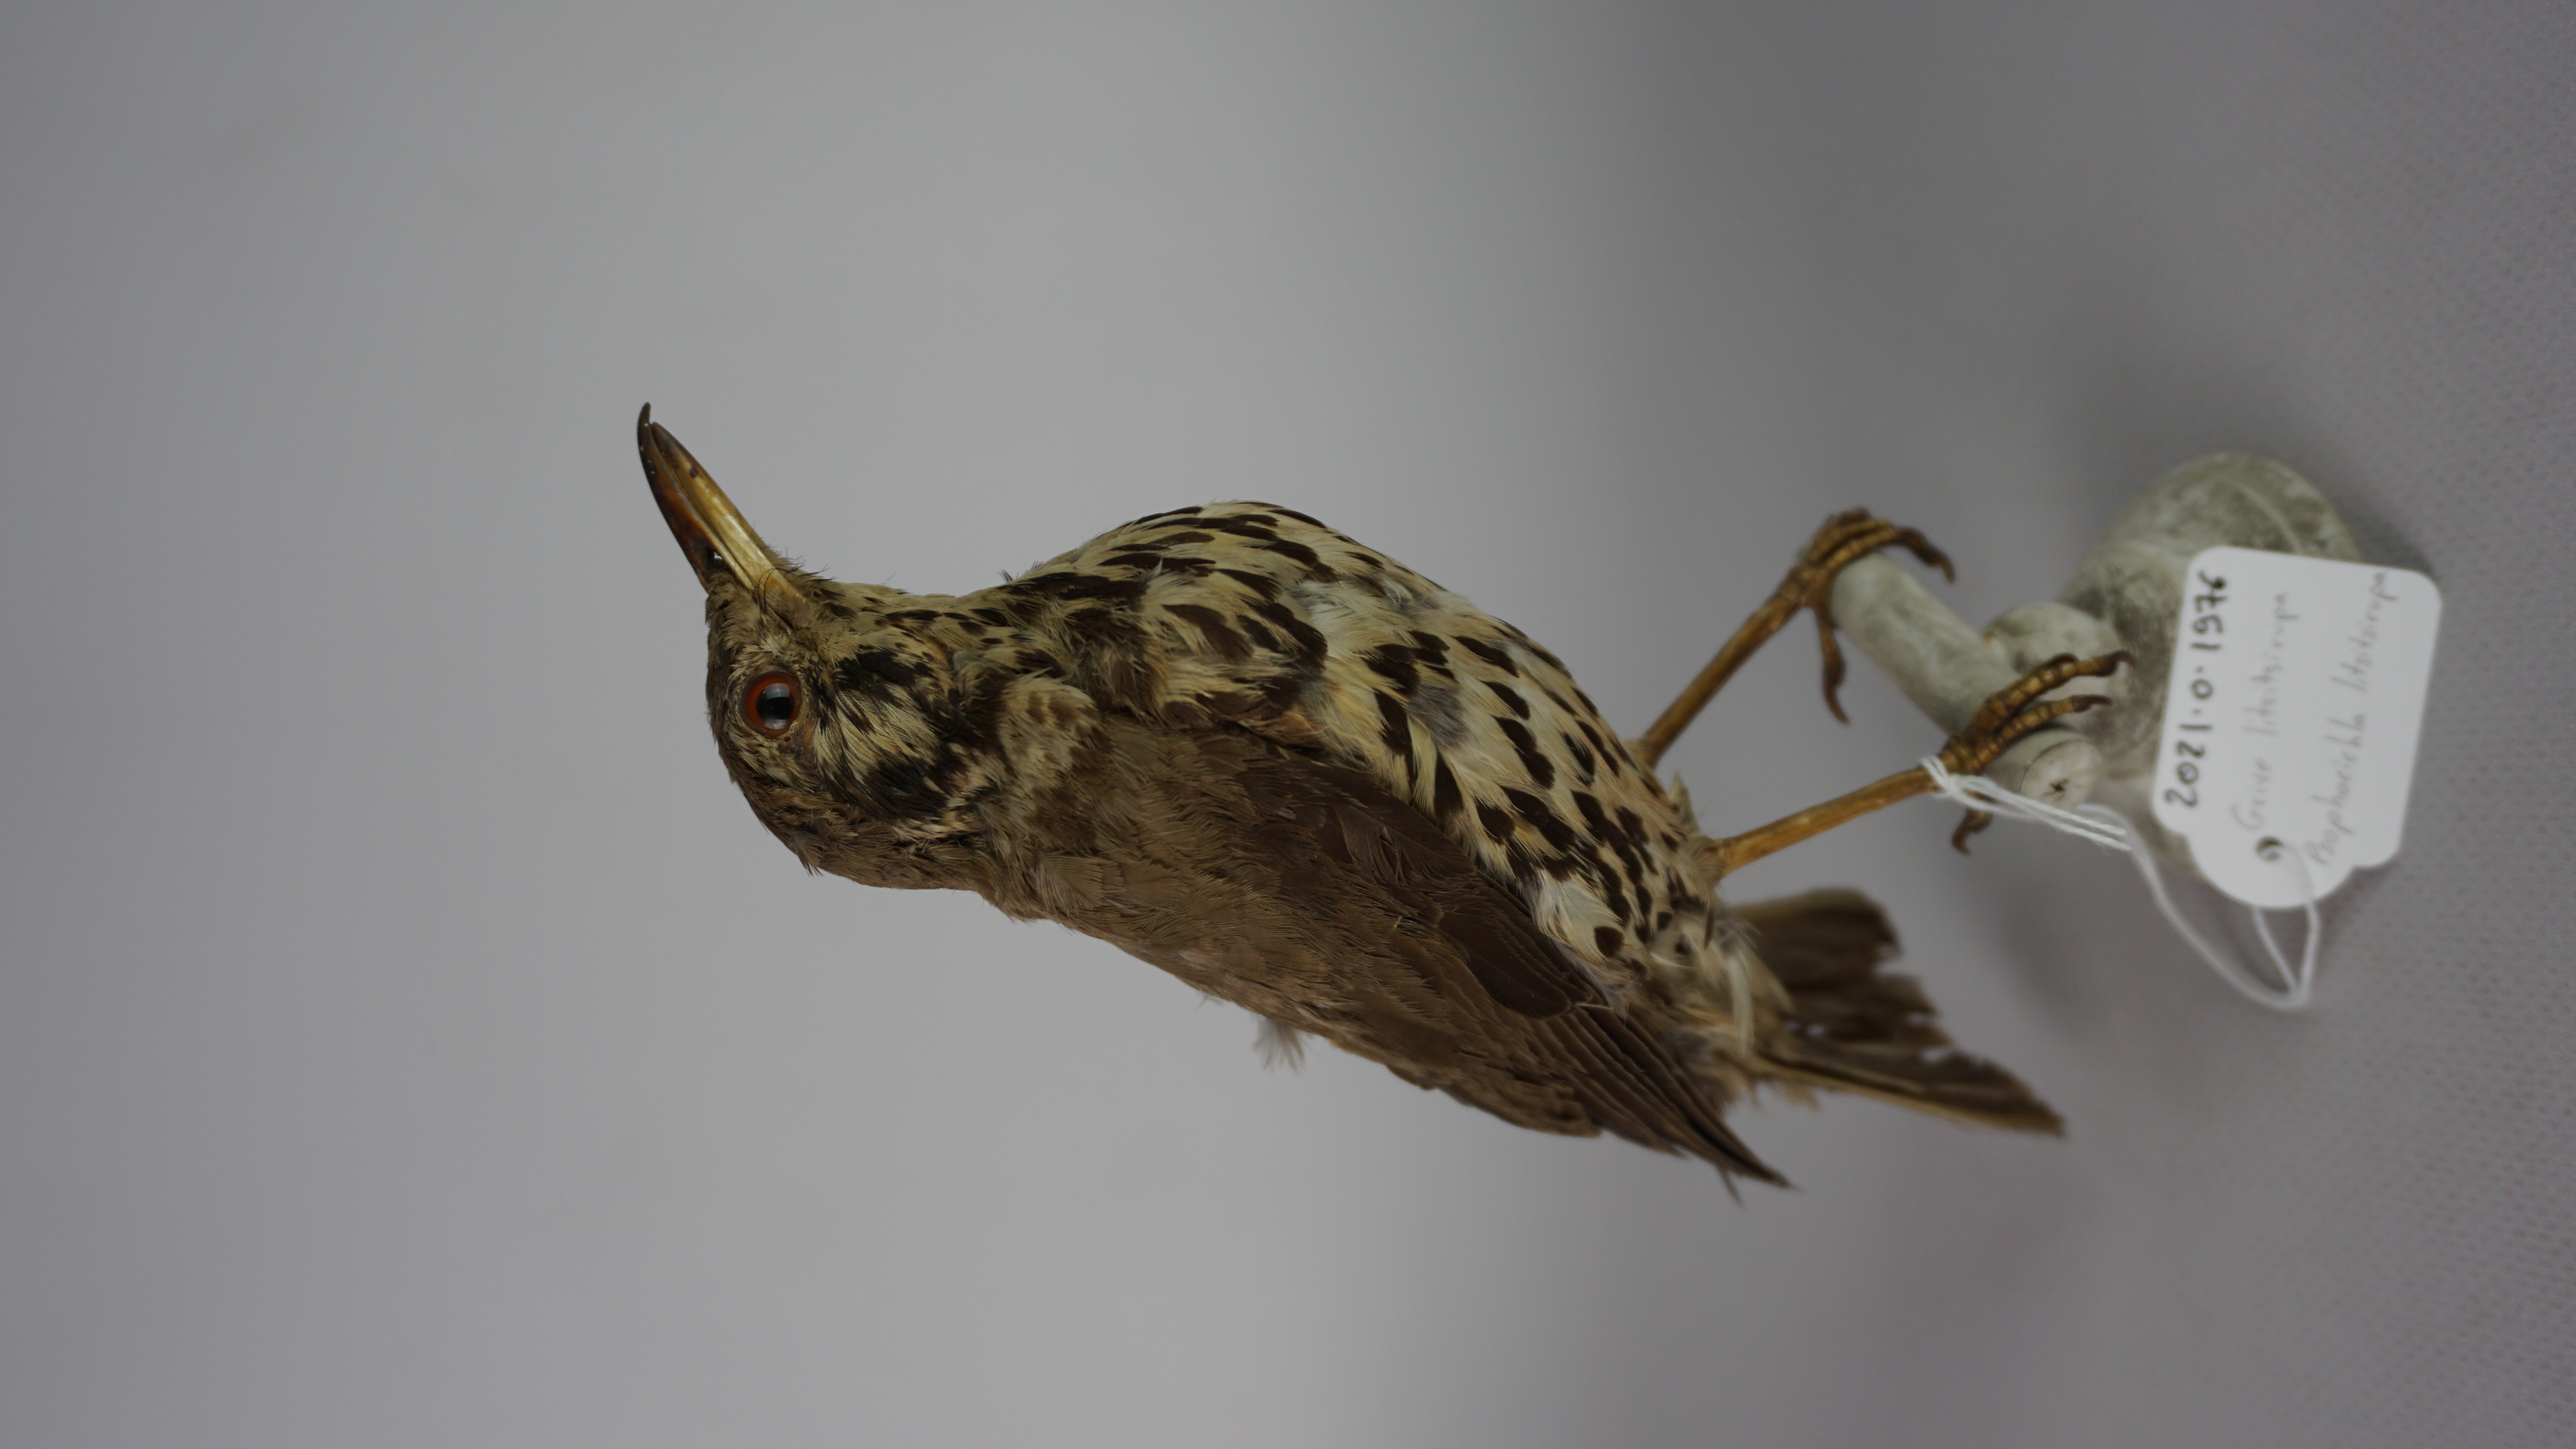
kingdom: Animalia
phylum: Chordata
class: Aves
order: Passeriformes
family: Turdidae
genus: Psophocichla
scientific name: Psophocichla litsitsirupa
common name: Groundscraper thrush
